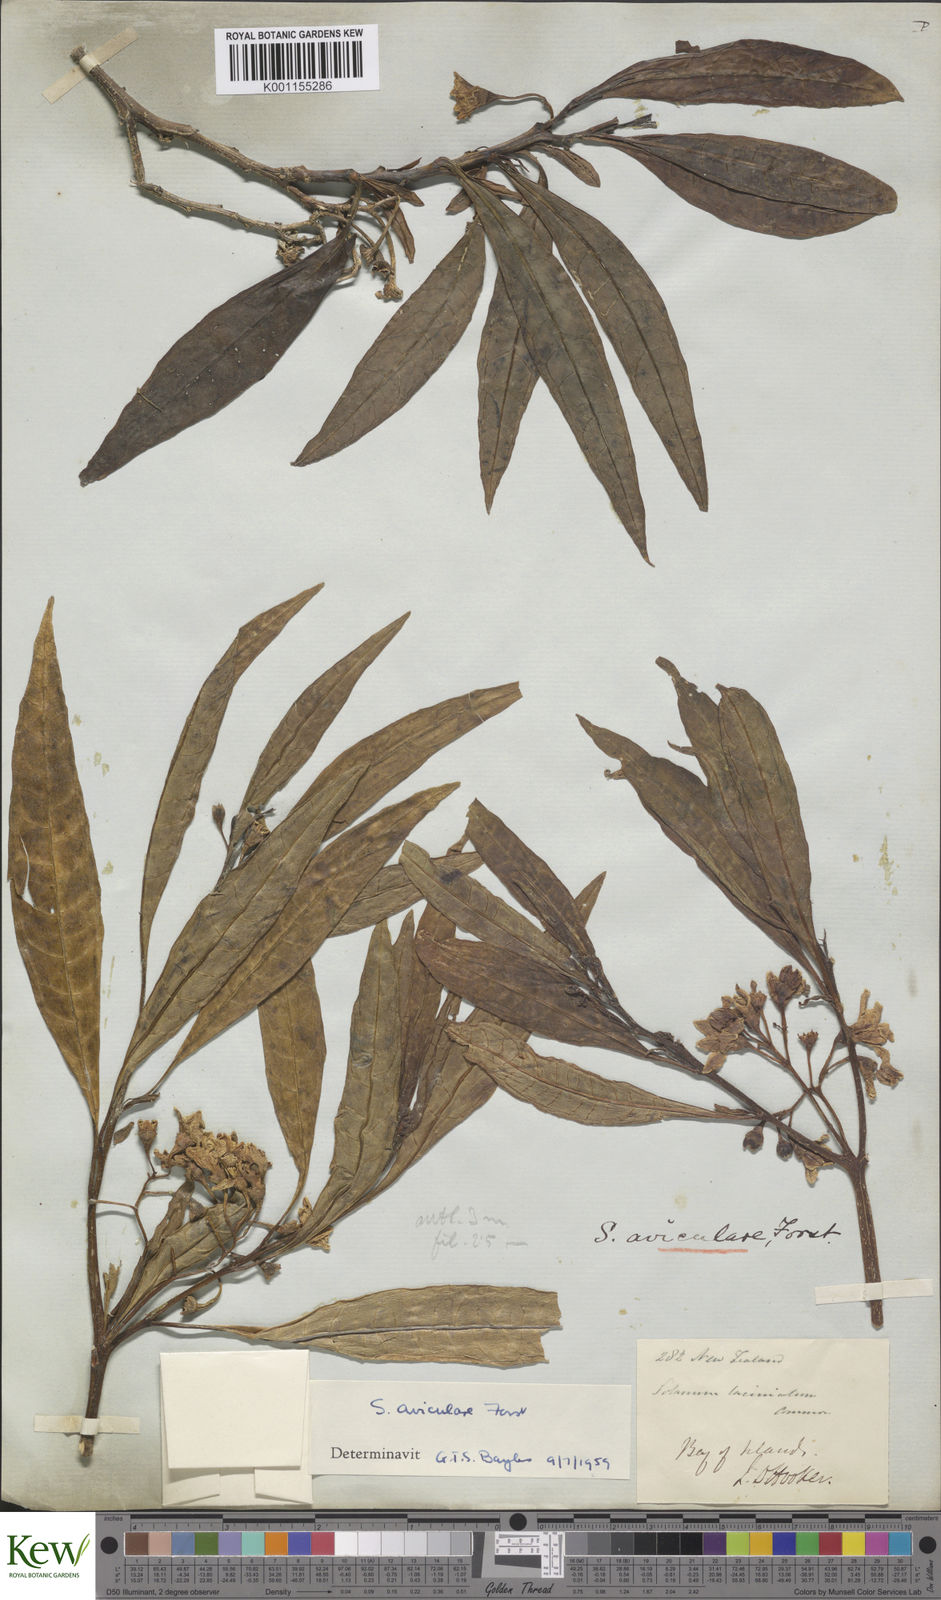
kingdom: Plantae
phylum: Tracheophyta
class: Magnoliopsida
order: Solanales
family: Solanaceae
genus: Solanum
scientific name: Solanum aviculare
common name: New zealand nightshade
